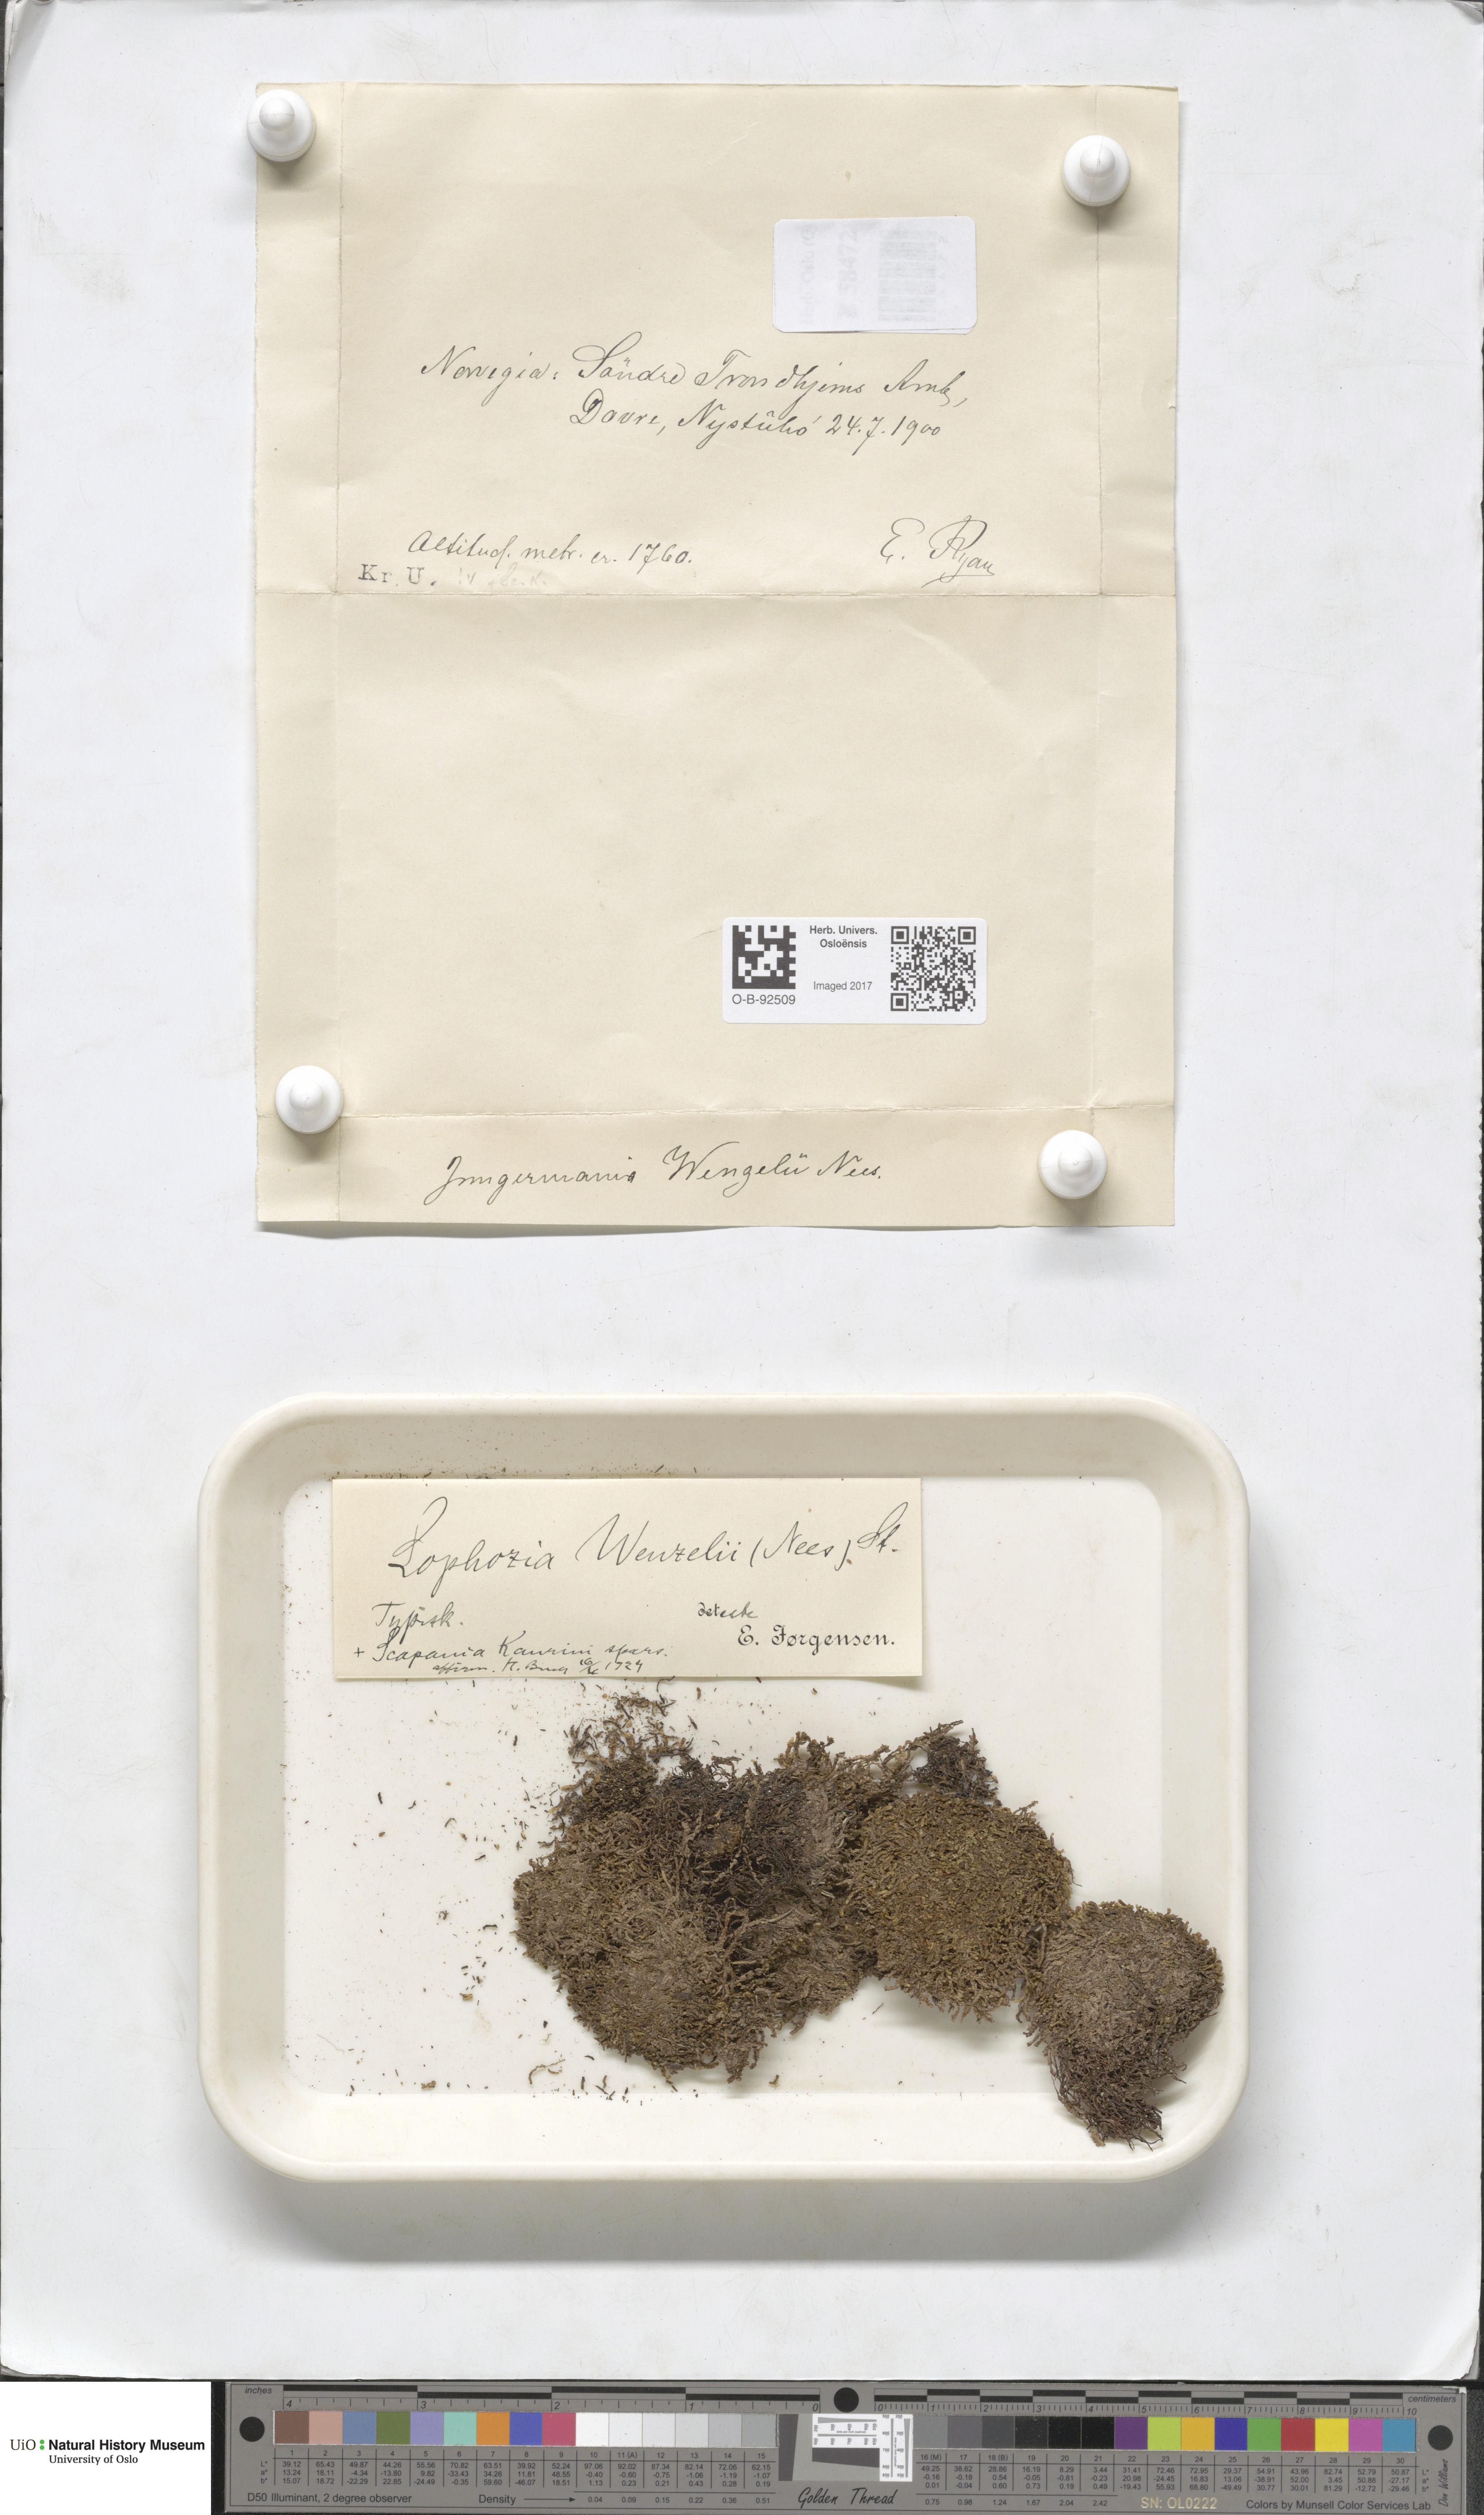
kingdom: Plantae
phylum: Marchantiophyta
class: Jungermanniopsida
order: Jungermanniales
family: Lophoziaceae
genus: Lophozia
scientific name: Lophozia wenzelii
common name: Wenzel s notchwort
